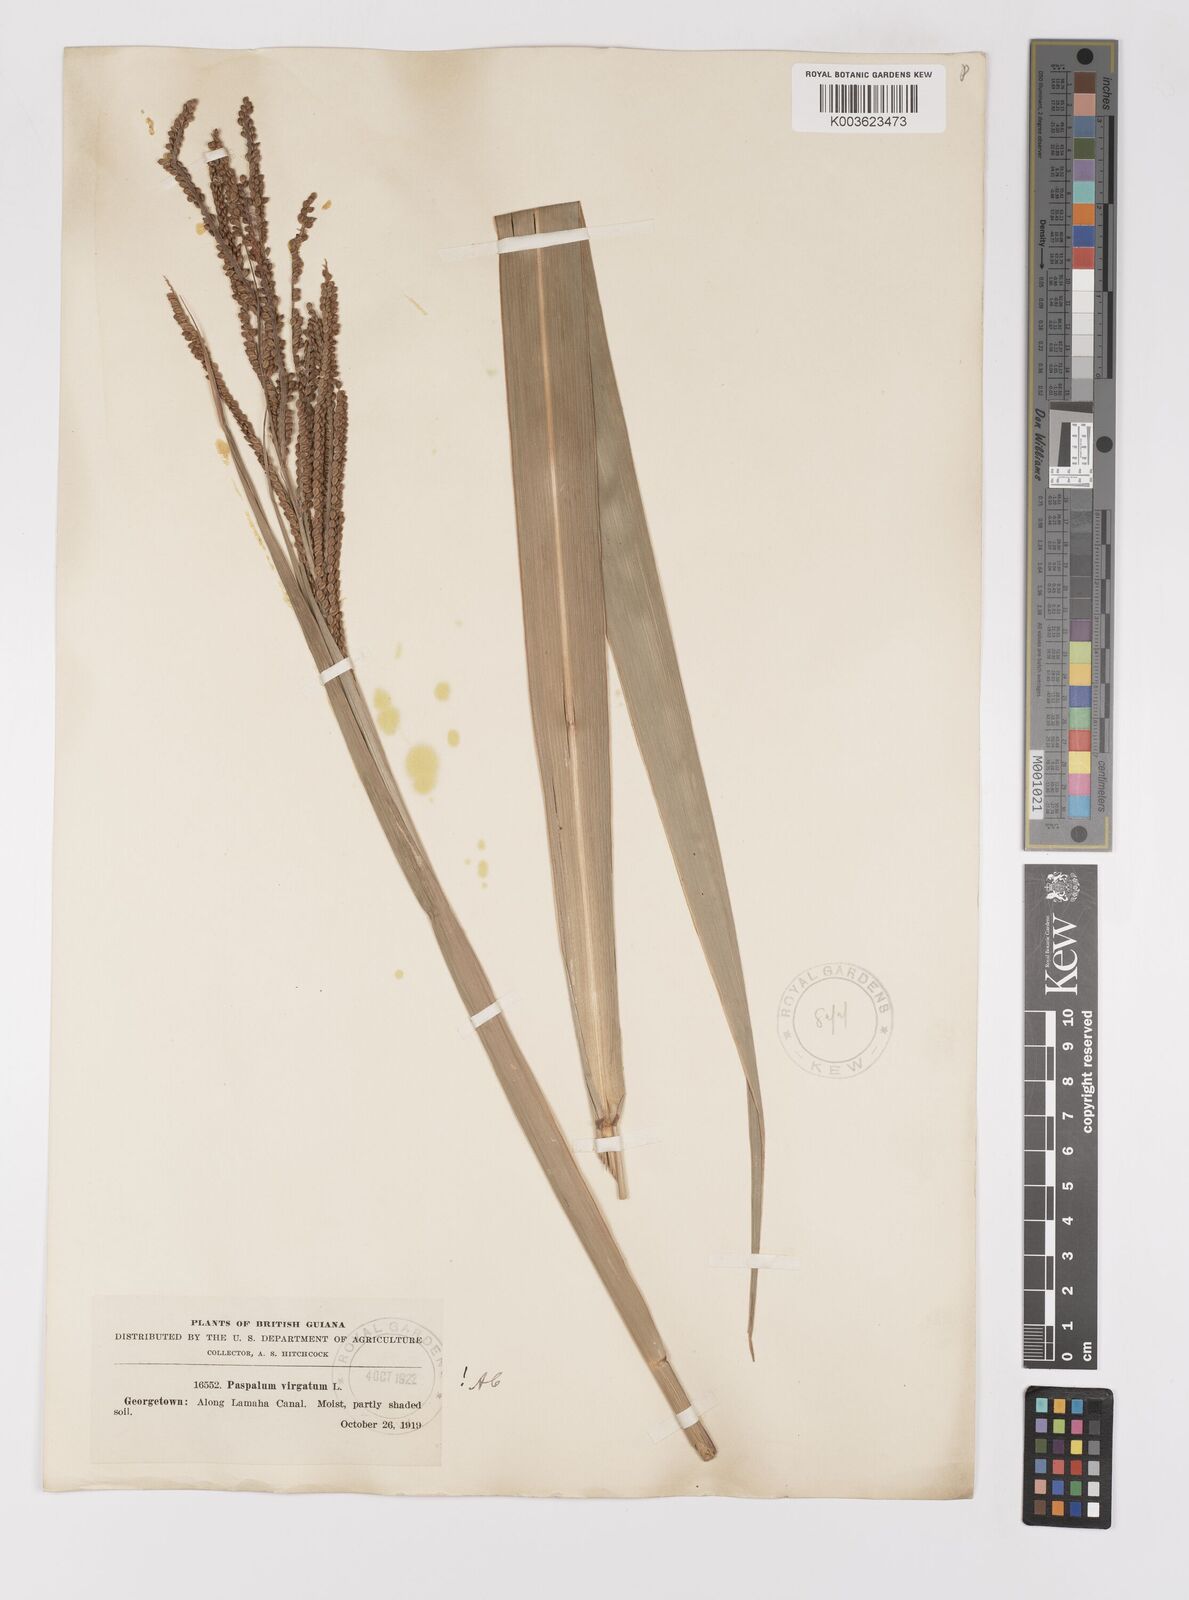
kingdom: Plantae
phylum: Tracheophyta
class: Liliopsida
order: Poales
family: Poaceae
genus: Paspalum
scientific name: Paspalum virgatum
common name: Talquezal
